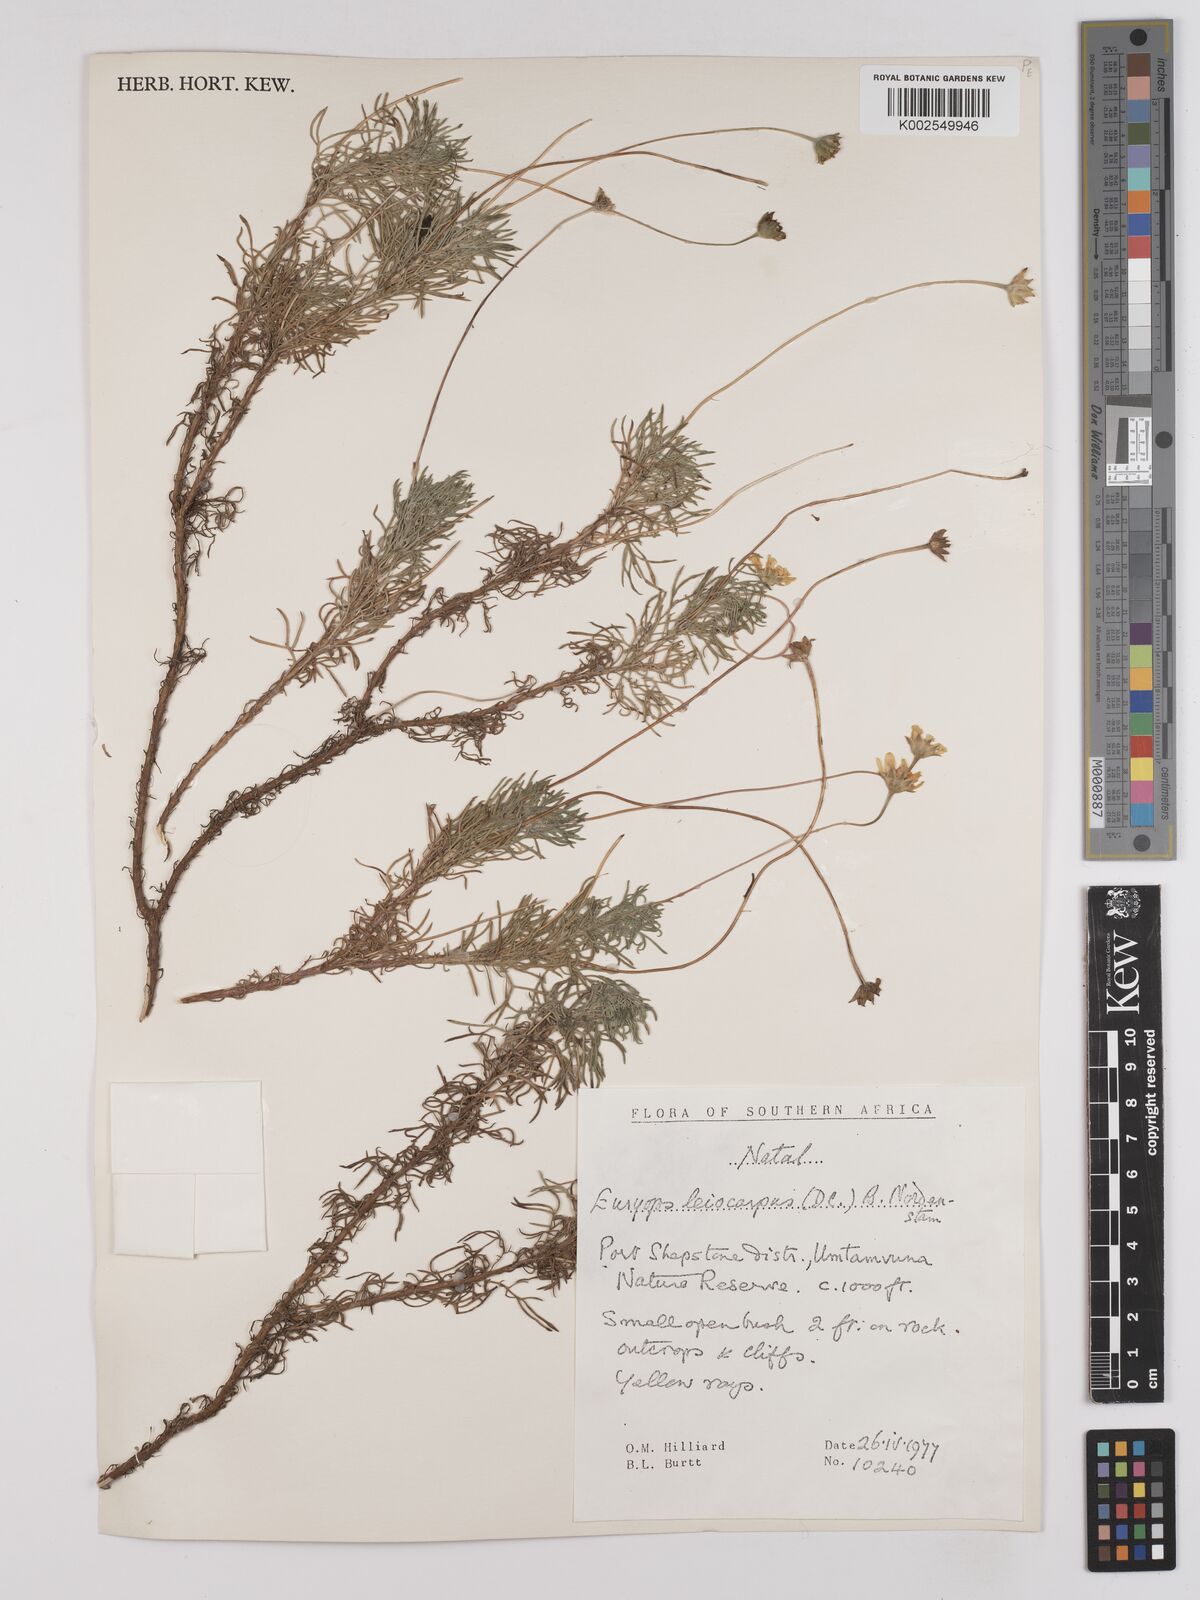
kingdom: Plantae
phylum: Tracheophyta
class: Magnoliopsida
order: Asterales
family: Asteraceae
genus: Euryops
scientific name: Euryops leiocarpus
